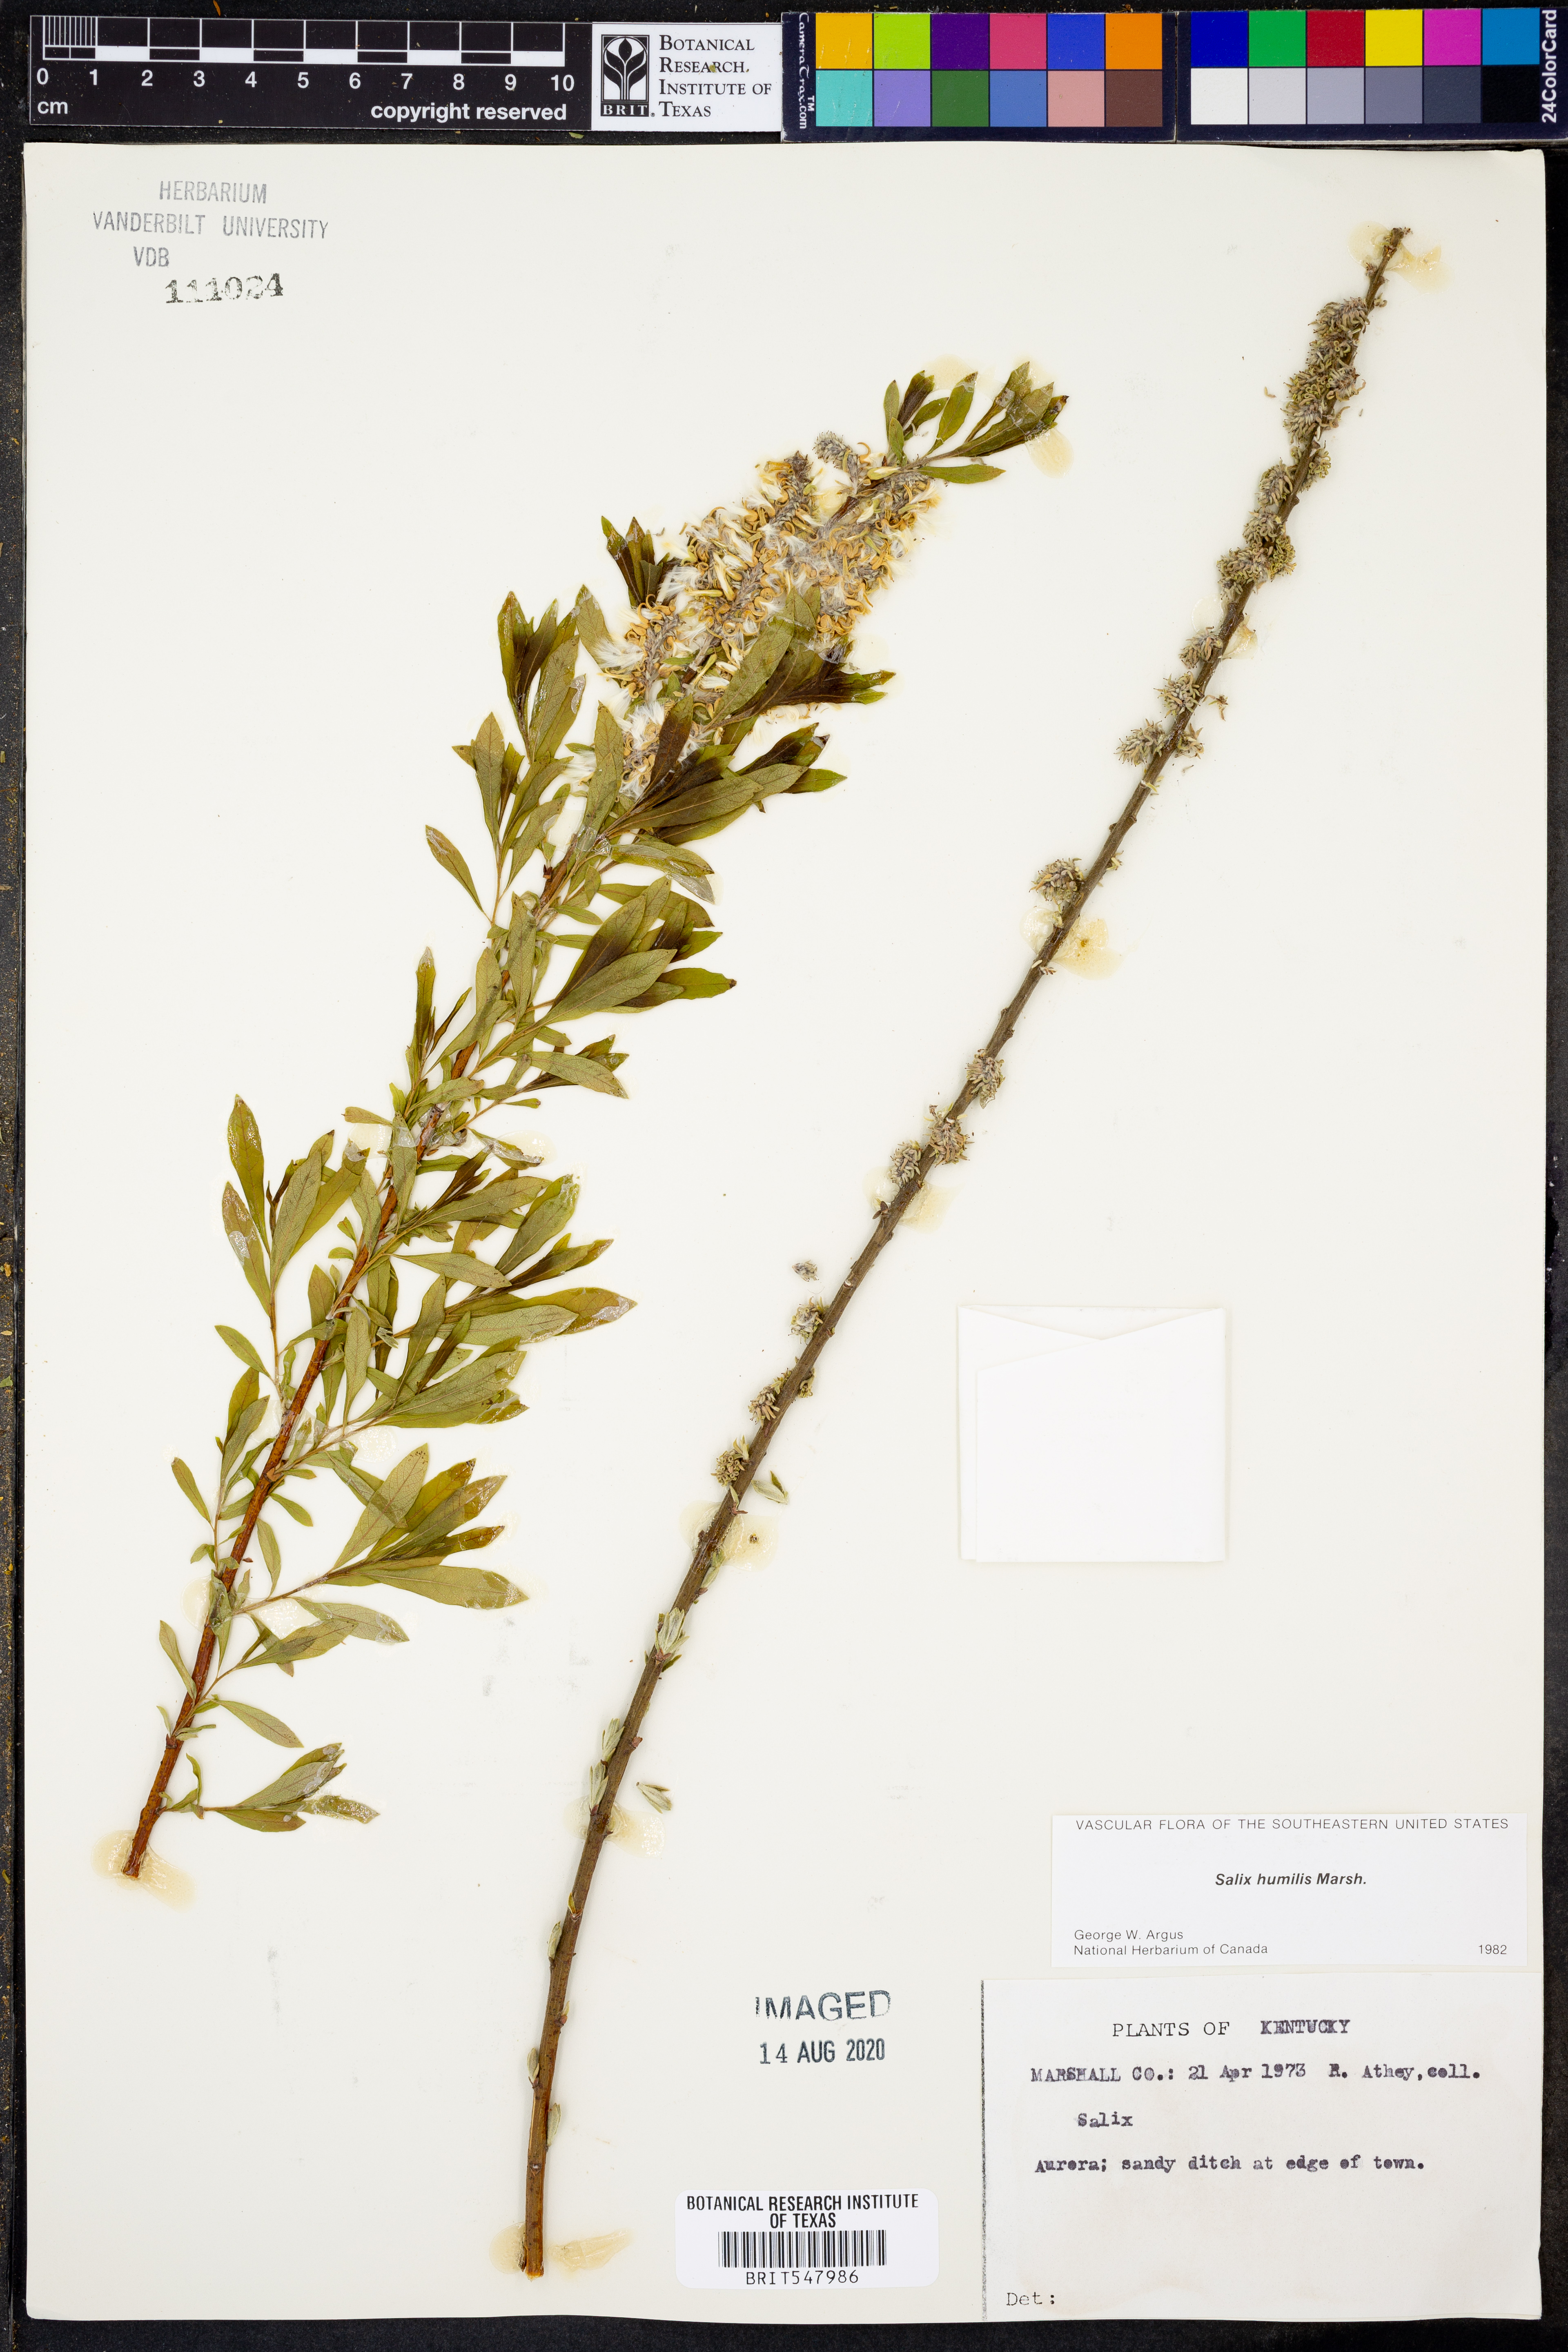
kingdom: Plantae
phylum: Tracheophyta
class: Magnoliopsida
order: Malpighiales
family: Salicaceae
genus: Salix
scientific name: Salix humilis
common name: Prairie willow
